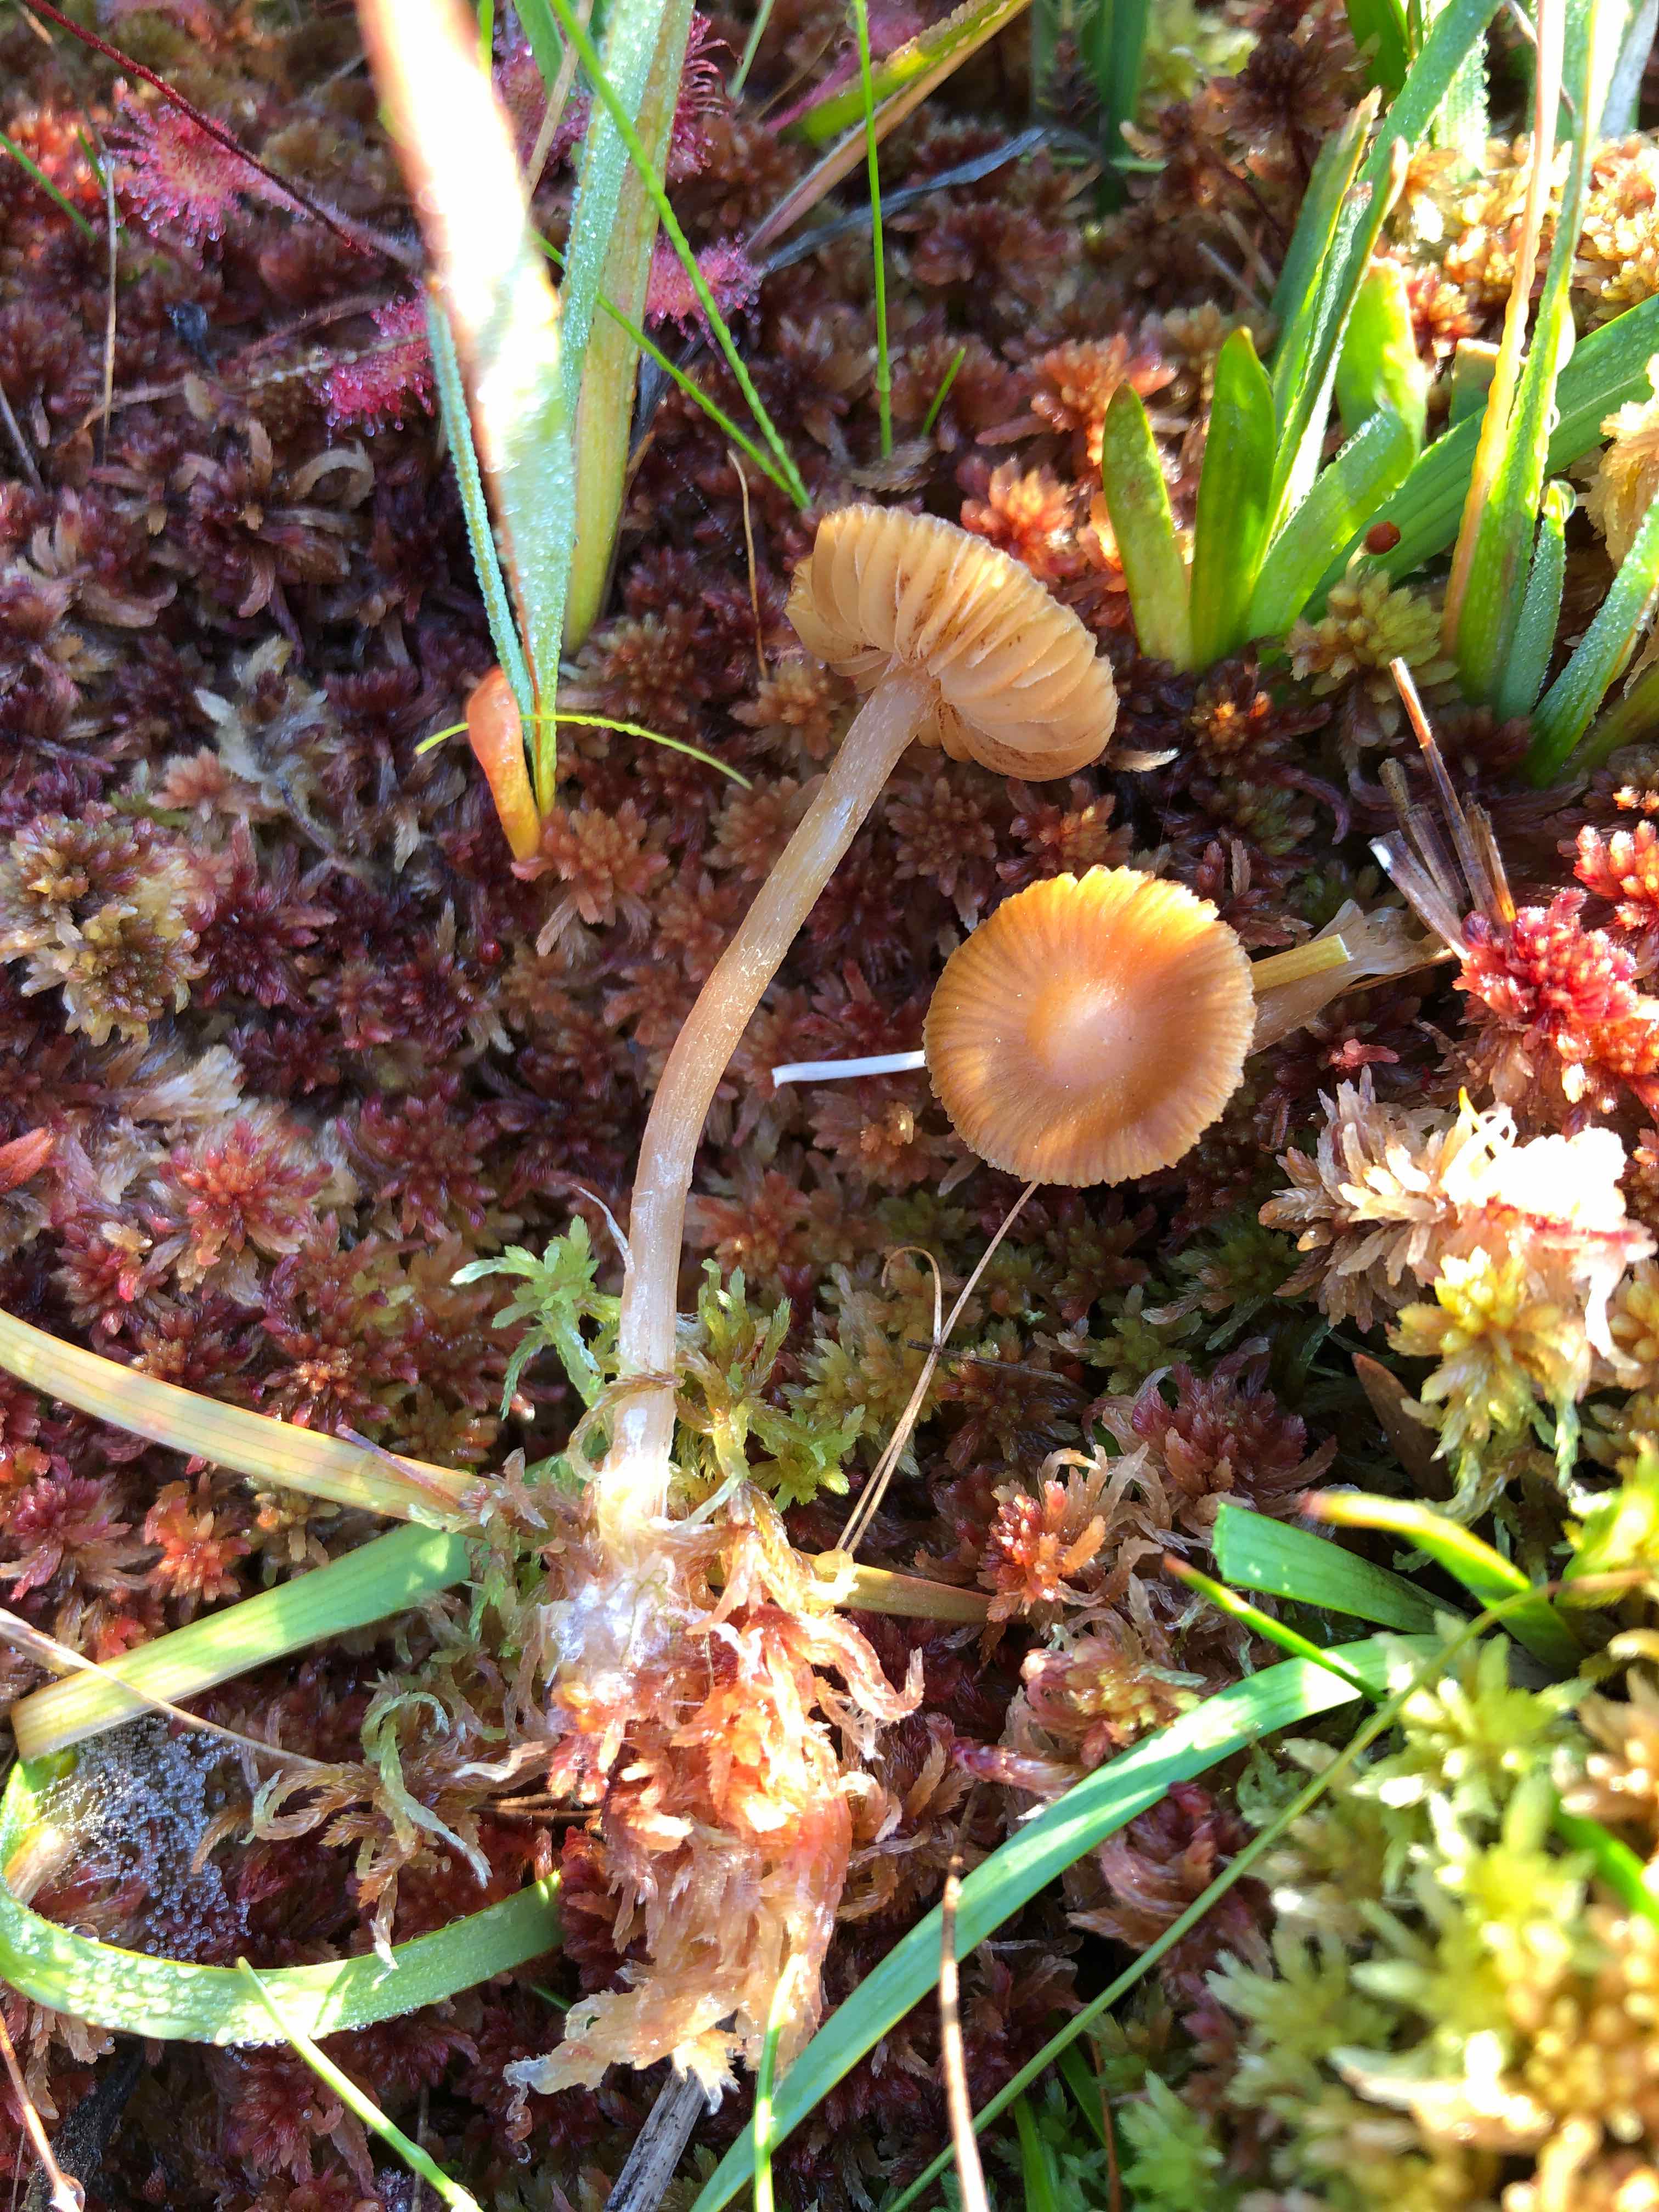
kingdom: Fungi
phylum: Basidiomycota
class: Agaricomycetes
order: Agaricales
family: Hymenogastraceae
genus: Galerina
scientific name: Galerina hybrida
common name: hængesæk-hjelmhat
